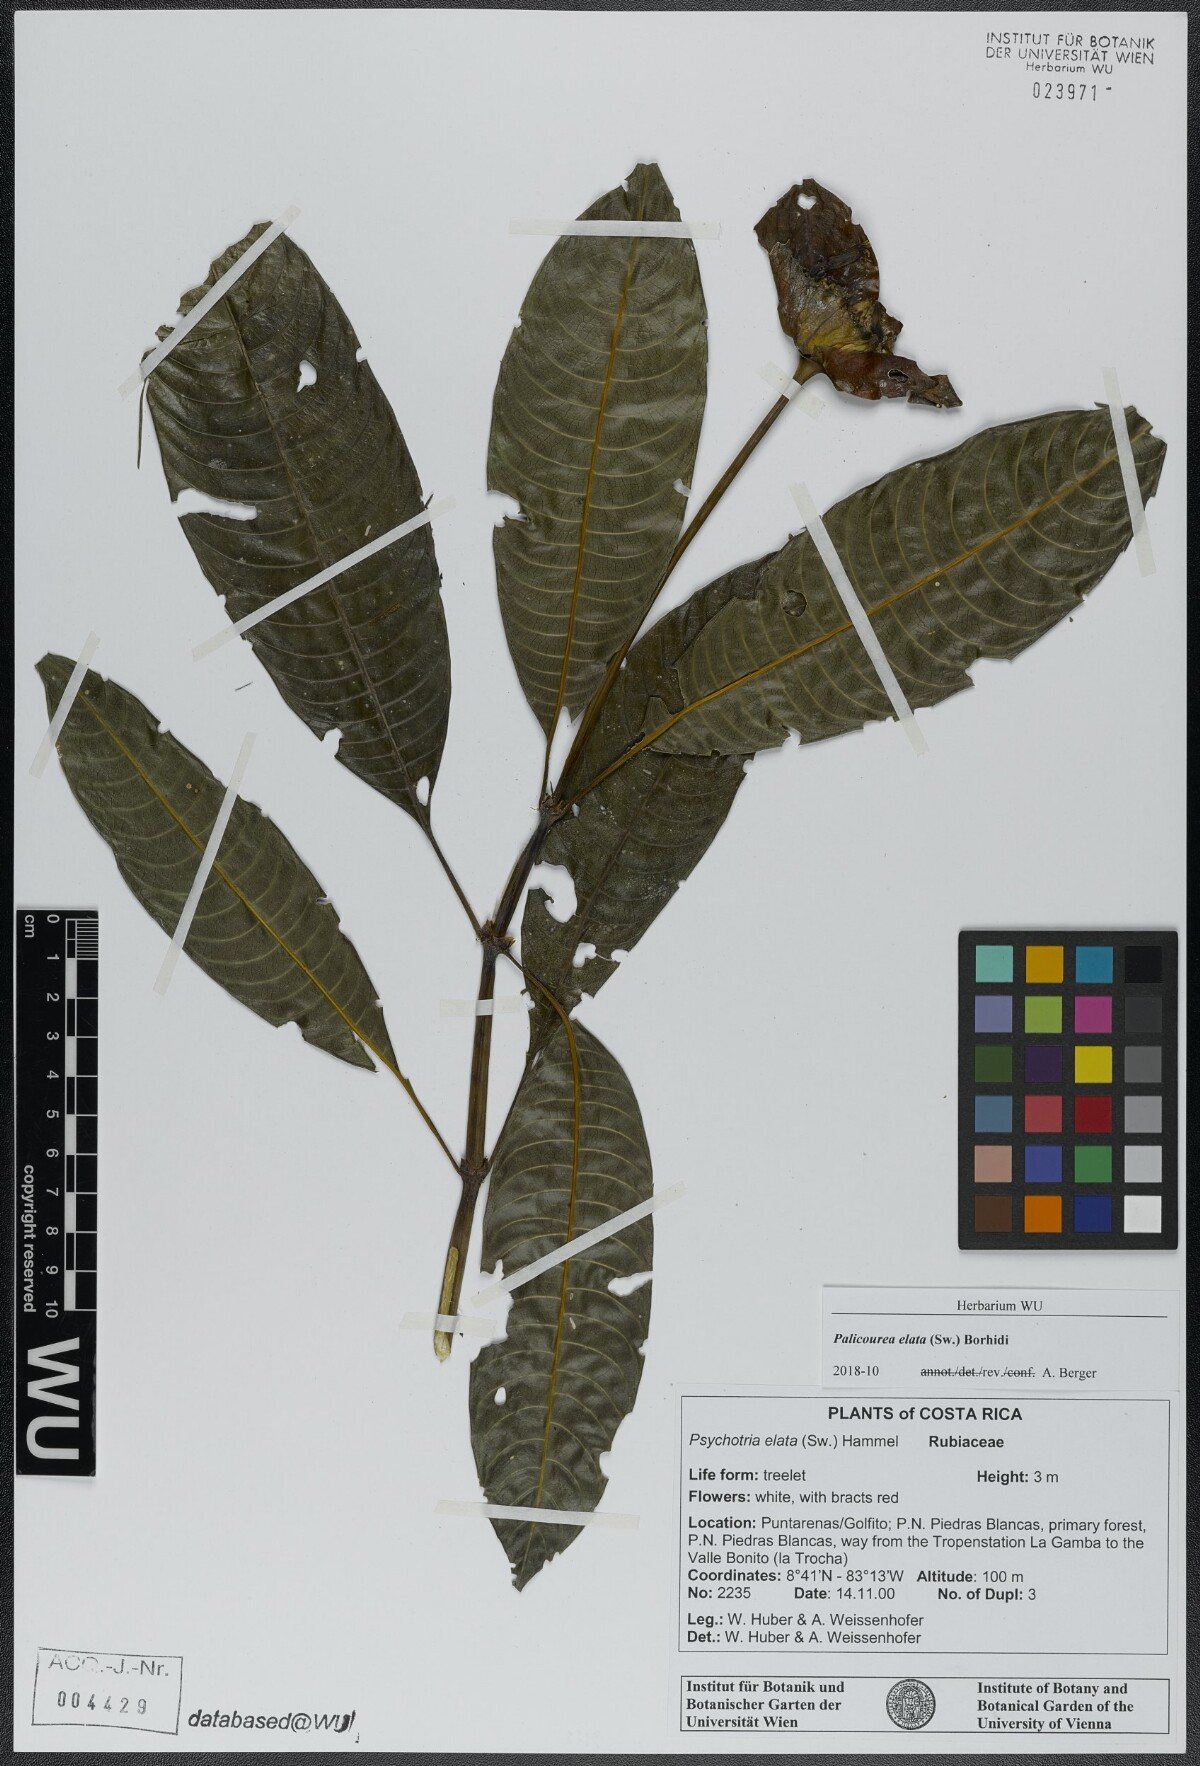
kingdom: Plantae
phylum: Tracheophyta
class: Magnoliopsida
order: Gentianales
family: Rubiaceae
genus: Palicourea
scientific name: Palicourea elata
